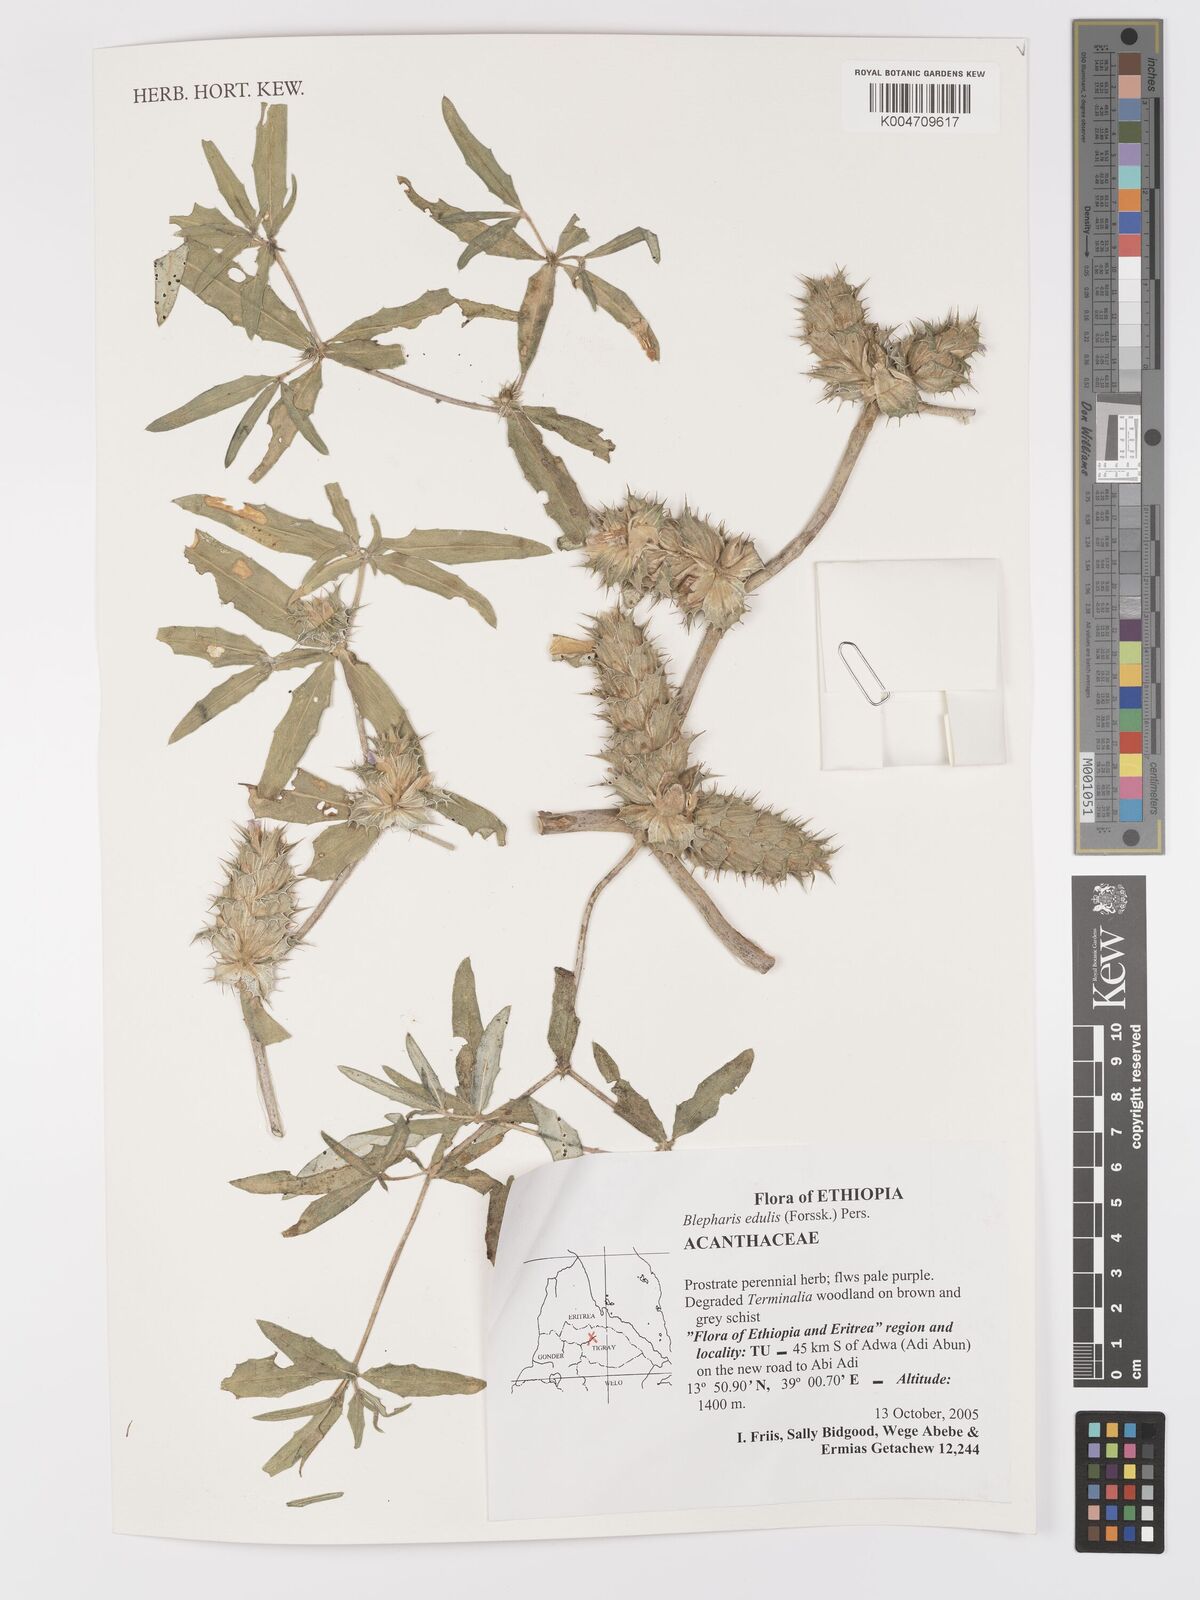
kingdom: Plantae
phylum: Tracheophyta
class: Magnoliopsida
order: Lamiales
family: Acanthaceae
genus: Blepharis
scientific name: Blepharis edulis
